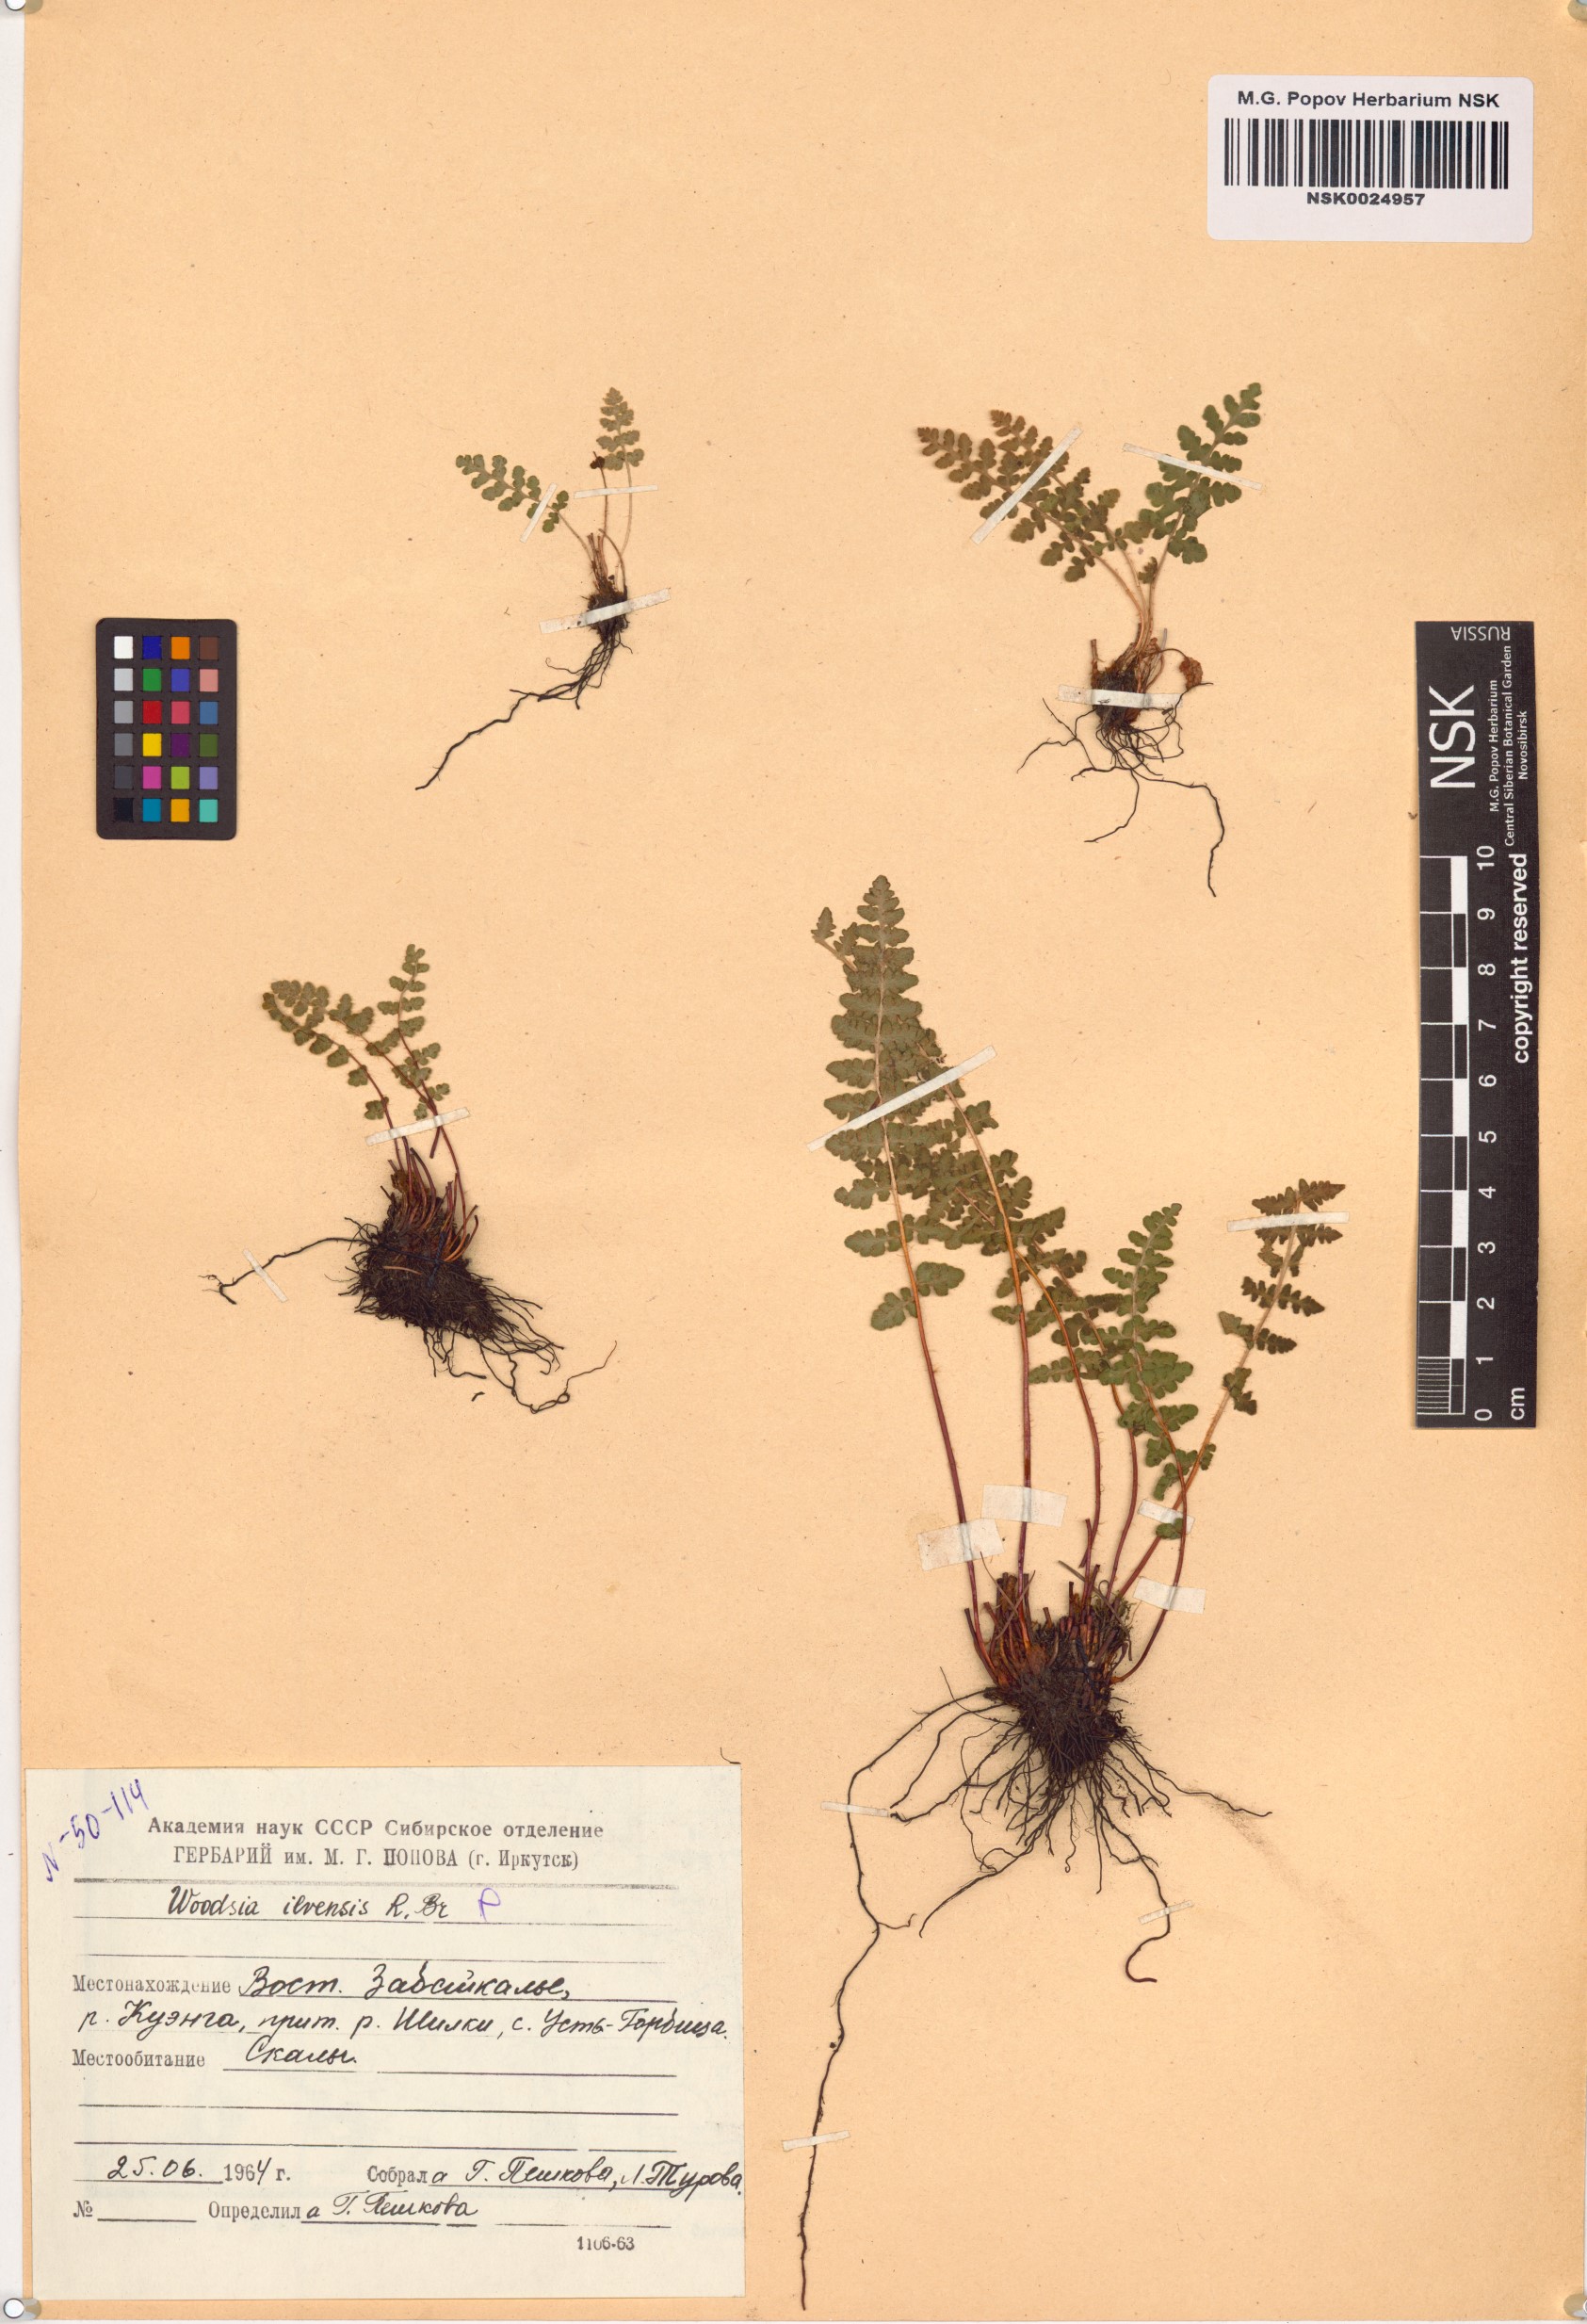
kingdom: Plantae
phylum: Tracheophyta
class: Polypodiopsida
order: Polypodiales
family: Woodsiaceae
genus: Woodsia
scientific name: Woodsia ilvensis
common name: Fragrant woodsia
